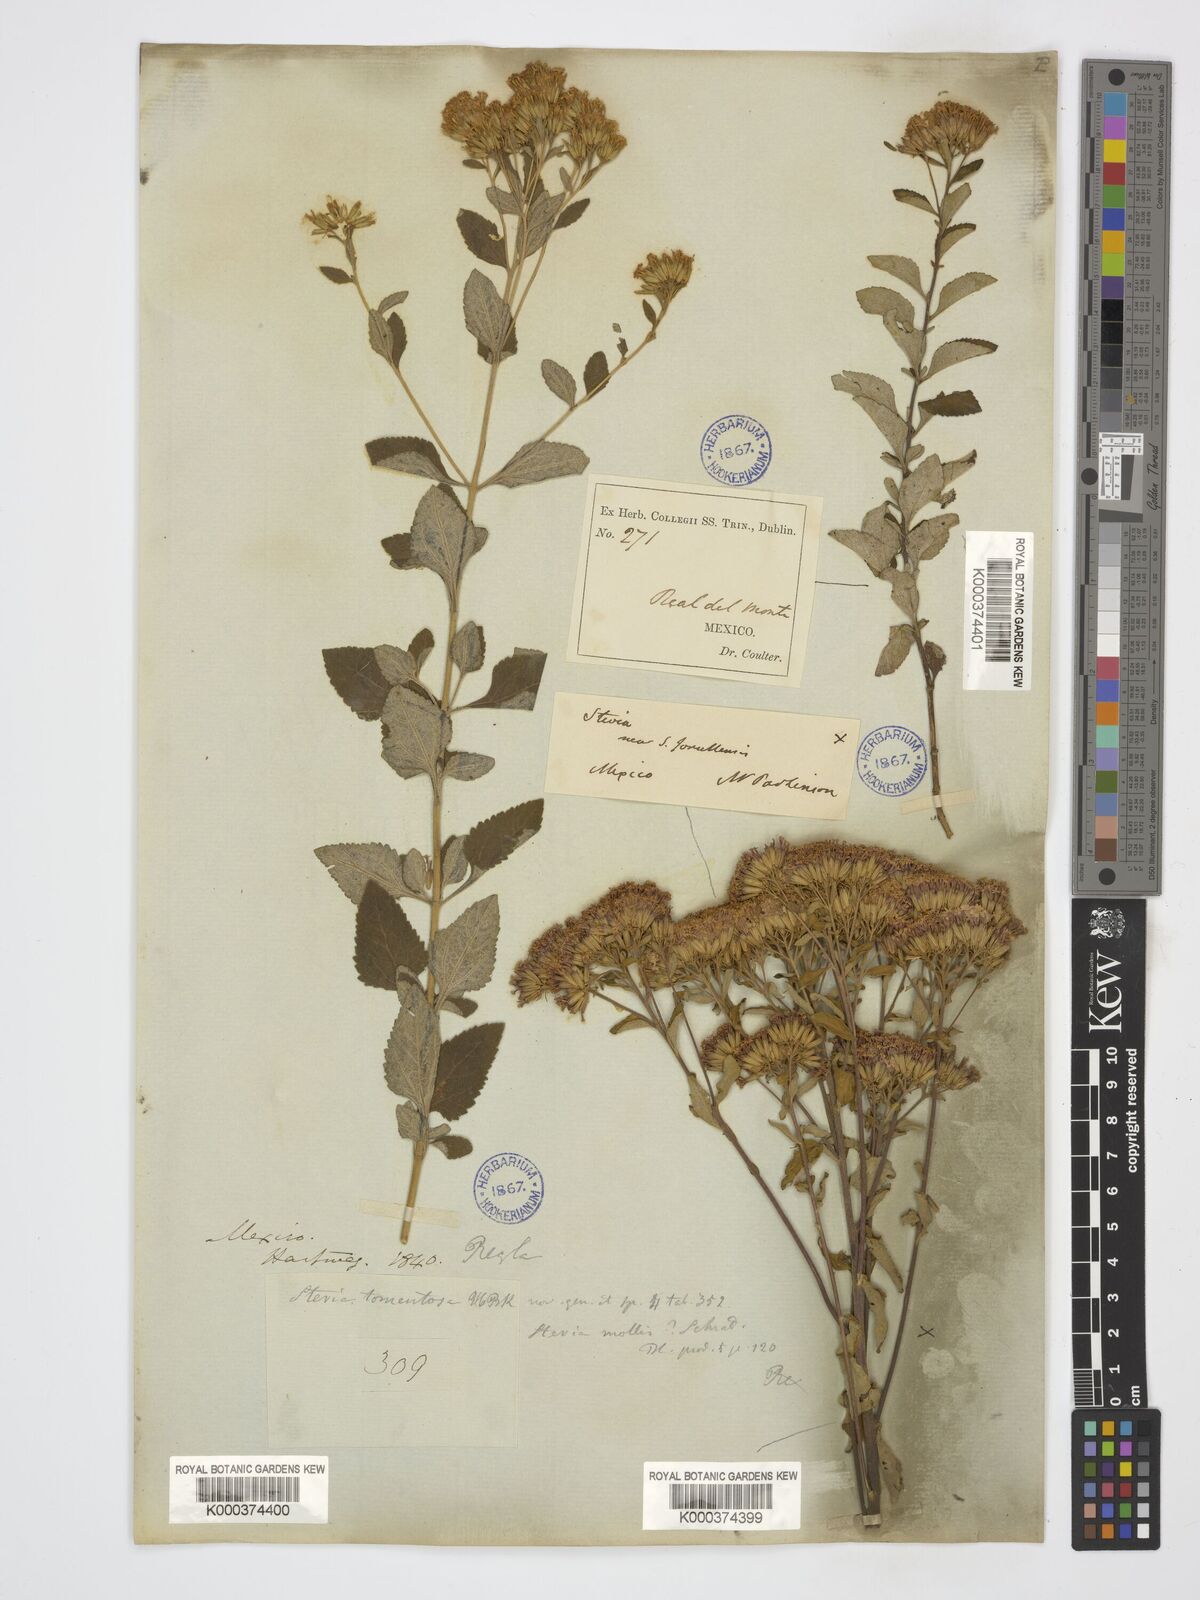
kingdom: Plantae
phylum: Tracheophyta
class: Magnoliopsida
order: Asterales
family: Asteraceae
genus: Stevia
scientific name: Stevia tomentosa
